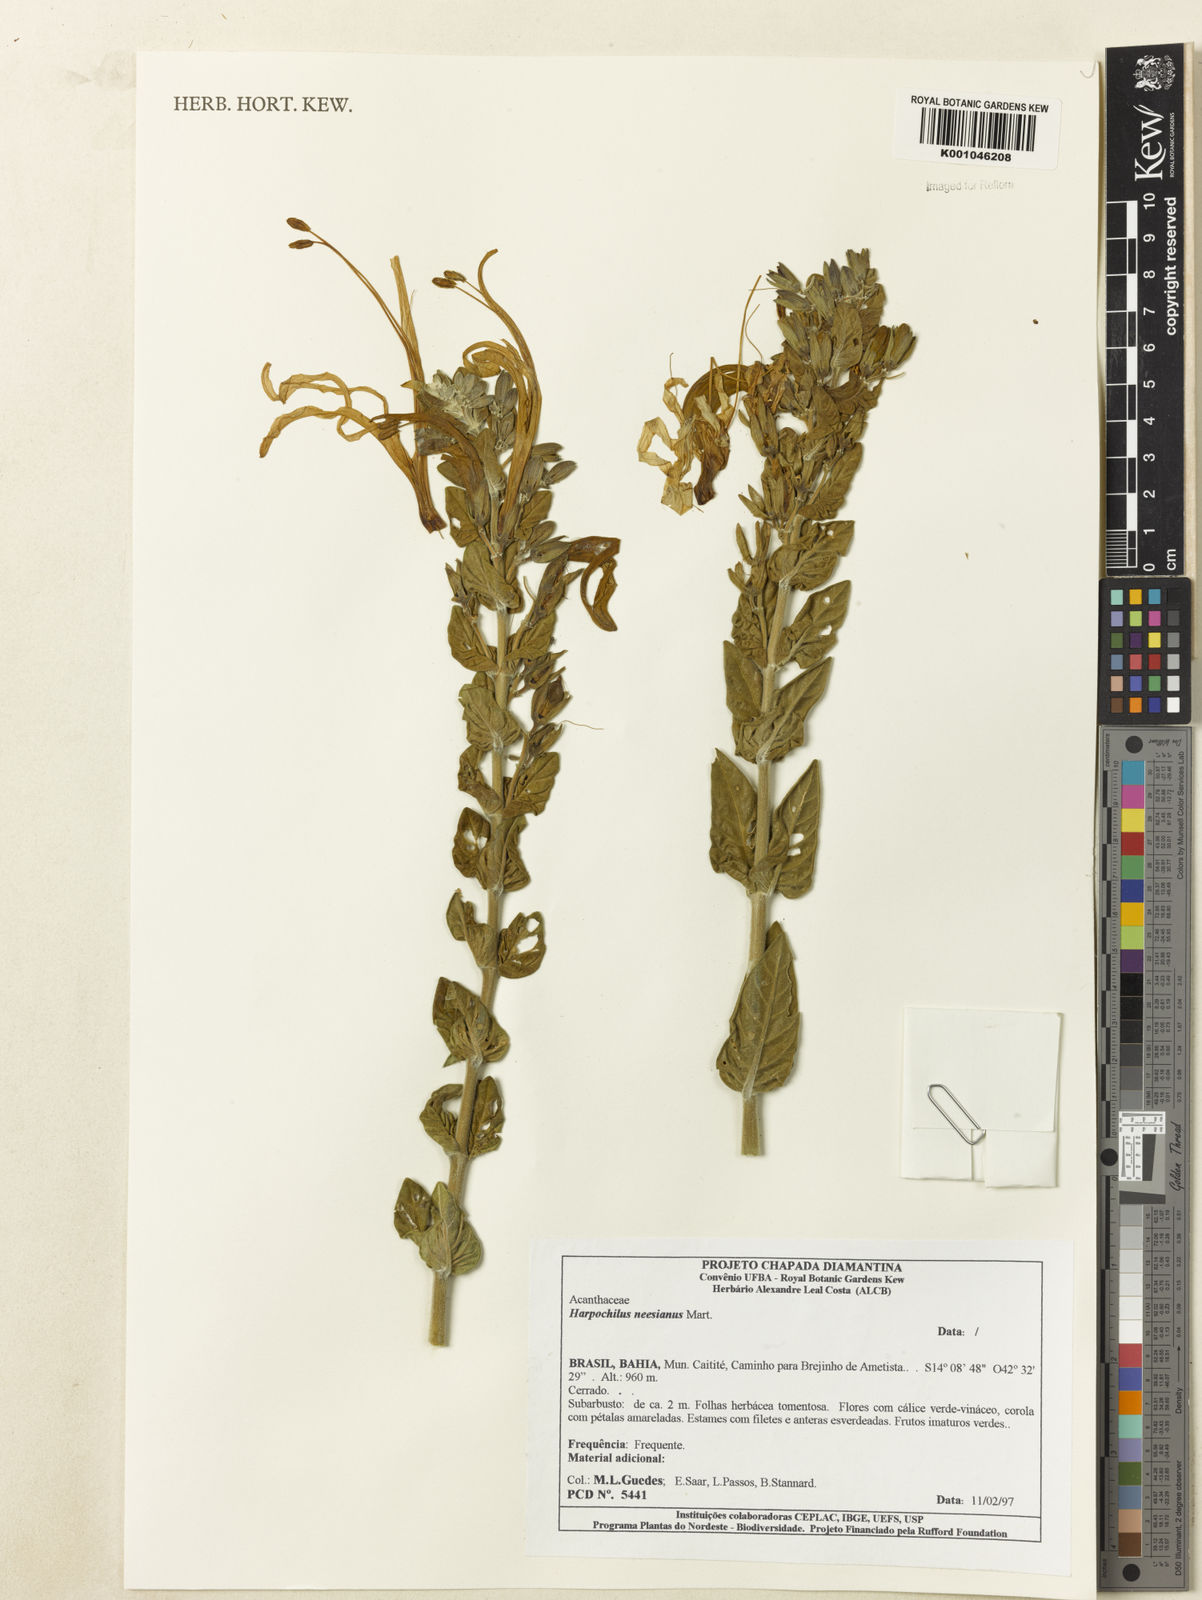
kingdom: Plantae
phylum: Tracheophyta
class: Magnoliopsida
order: Lamiales
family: Acanthaceae
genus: Harpochilus
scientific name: Harpochilus neesianus
